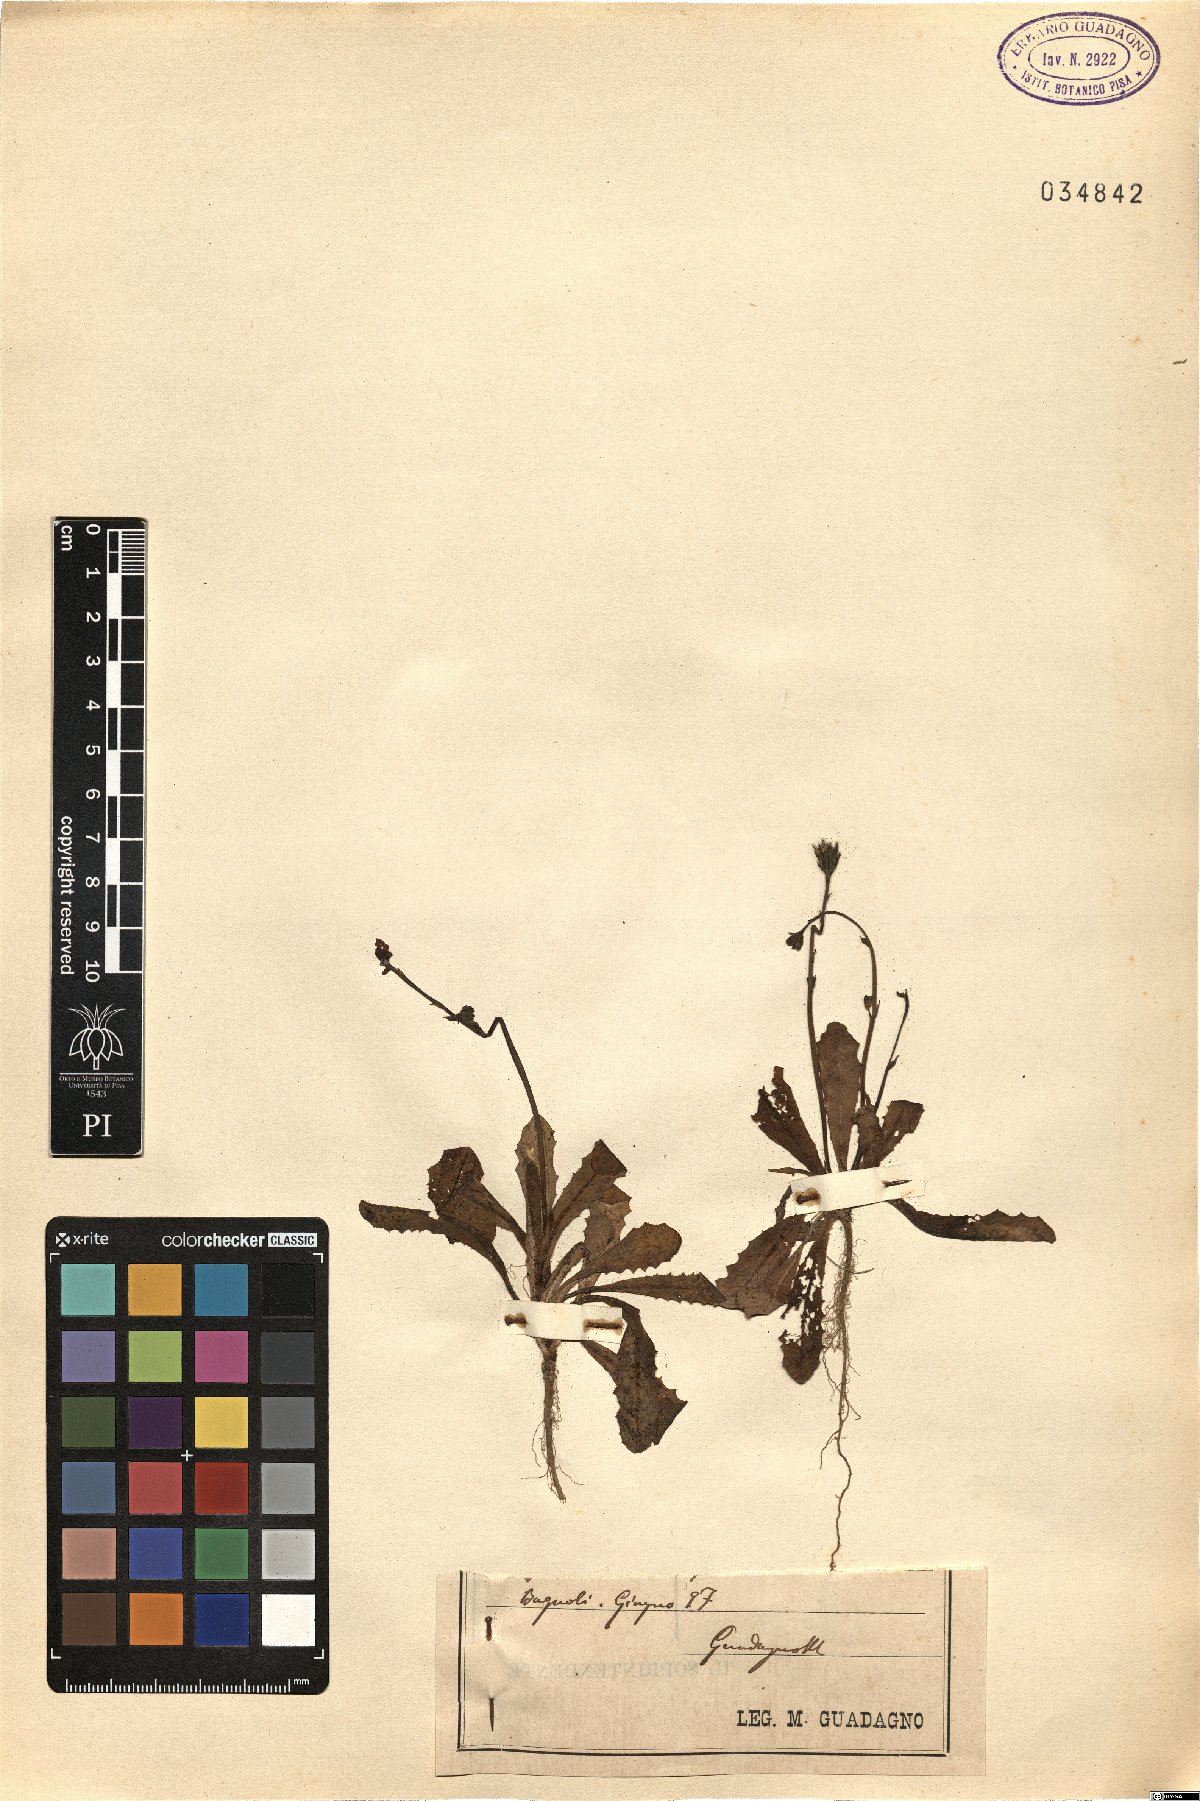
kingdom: Plantae
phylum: Tracheophyta
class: Magnoliopsida
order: Asterales
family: Asteraceae
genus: Hypochaeris
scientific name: Hypochaeris
